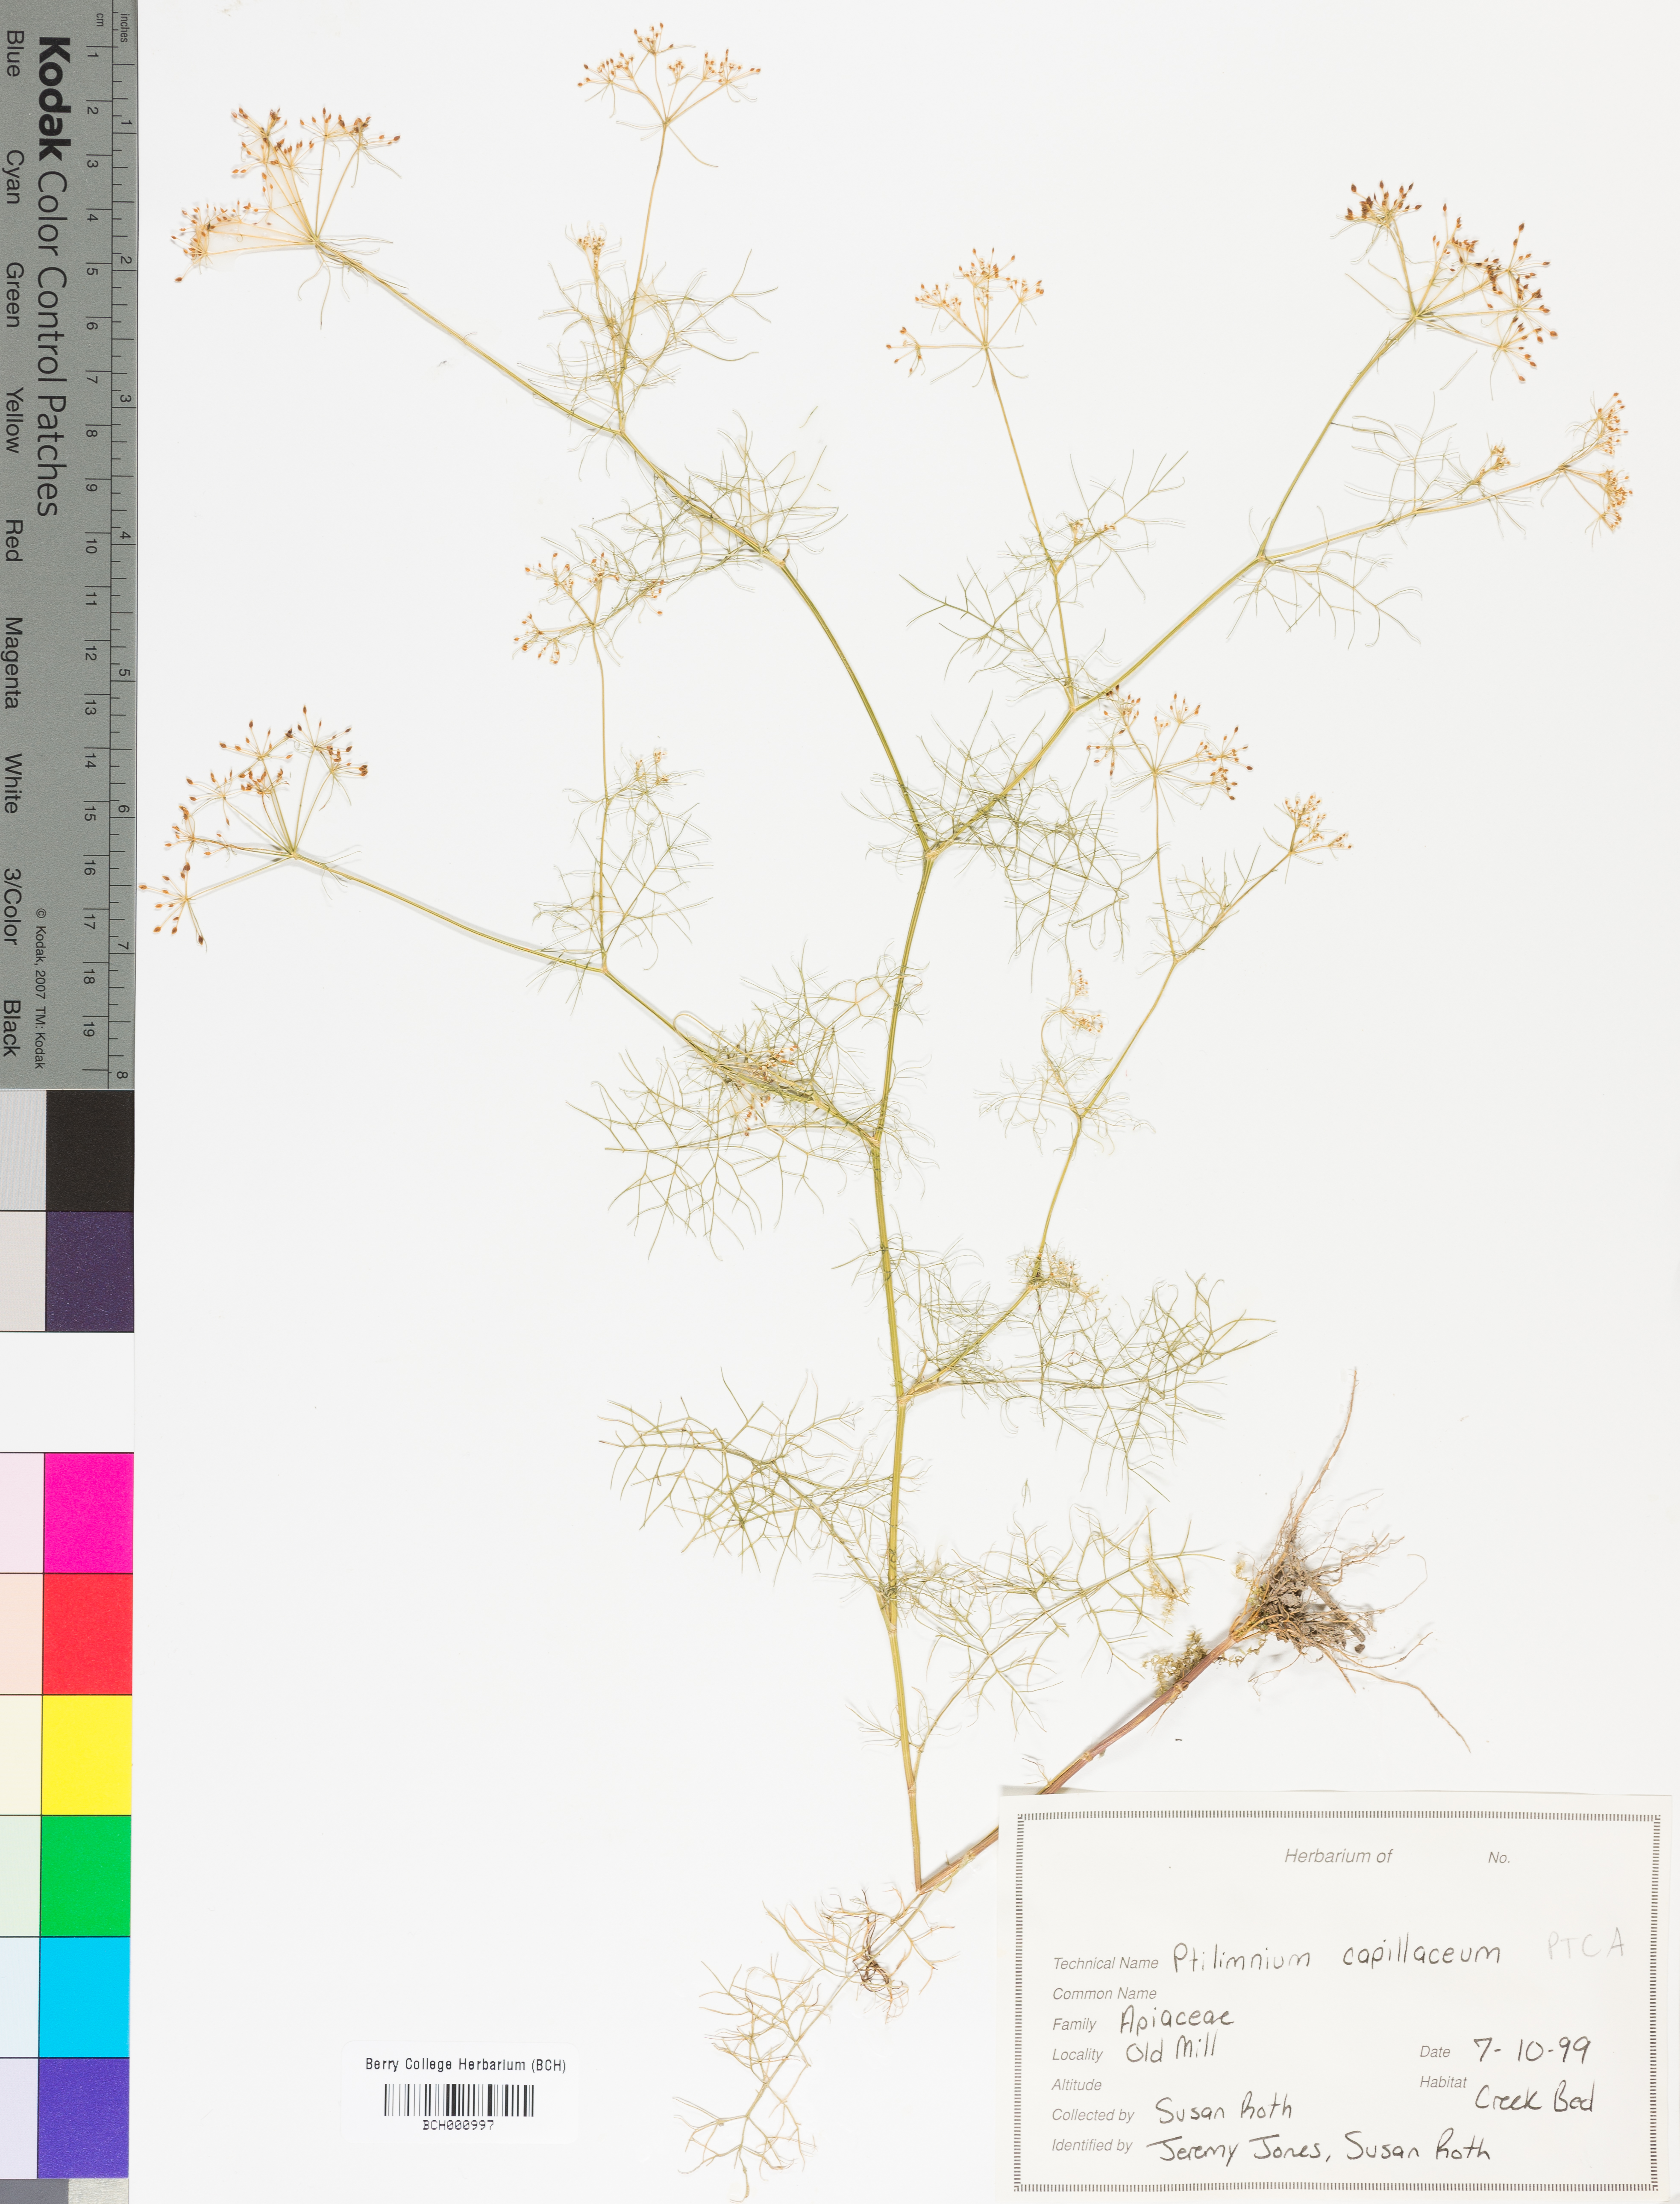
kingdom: Plantae
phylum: Tracheophyta
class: Magnoliopsida
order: Apiales
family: Apiaceae
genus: Ptilimnium
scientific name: Ptilimnium capillaceum
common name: Herbwilliam
